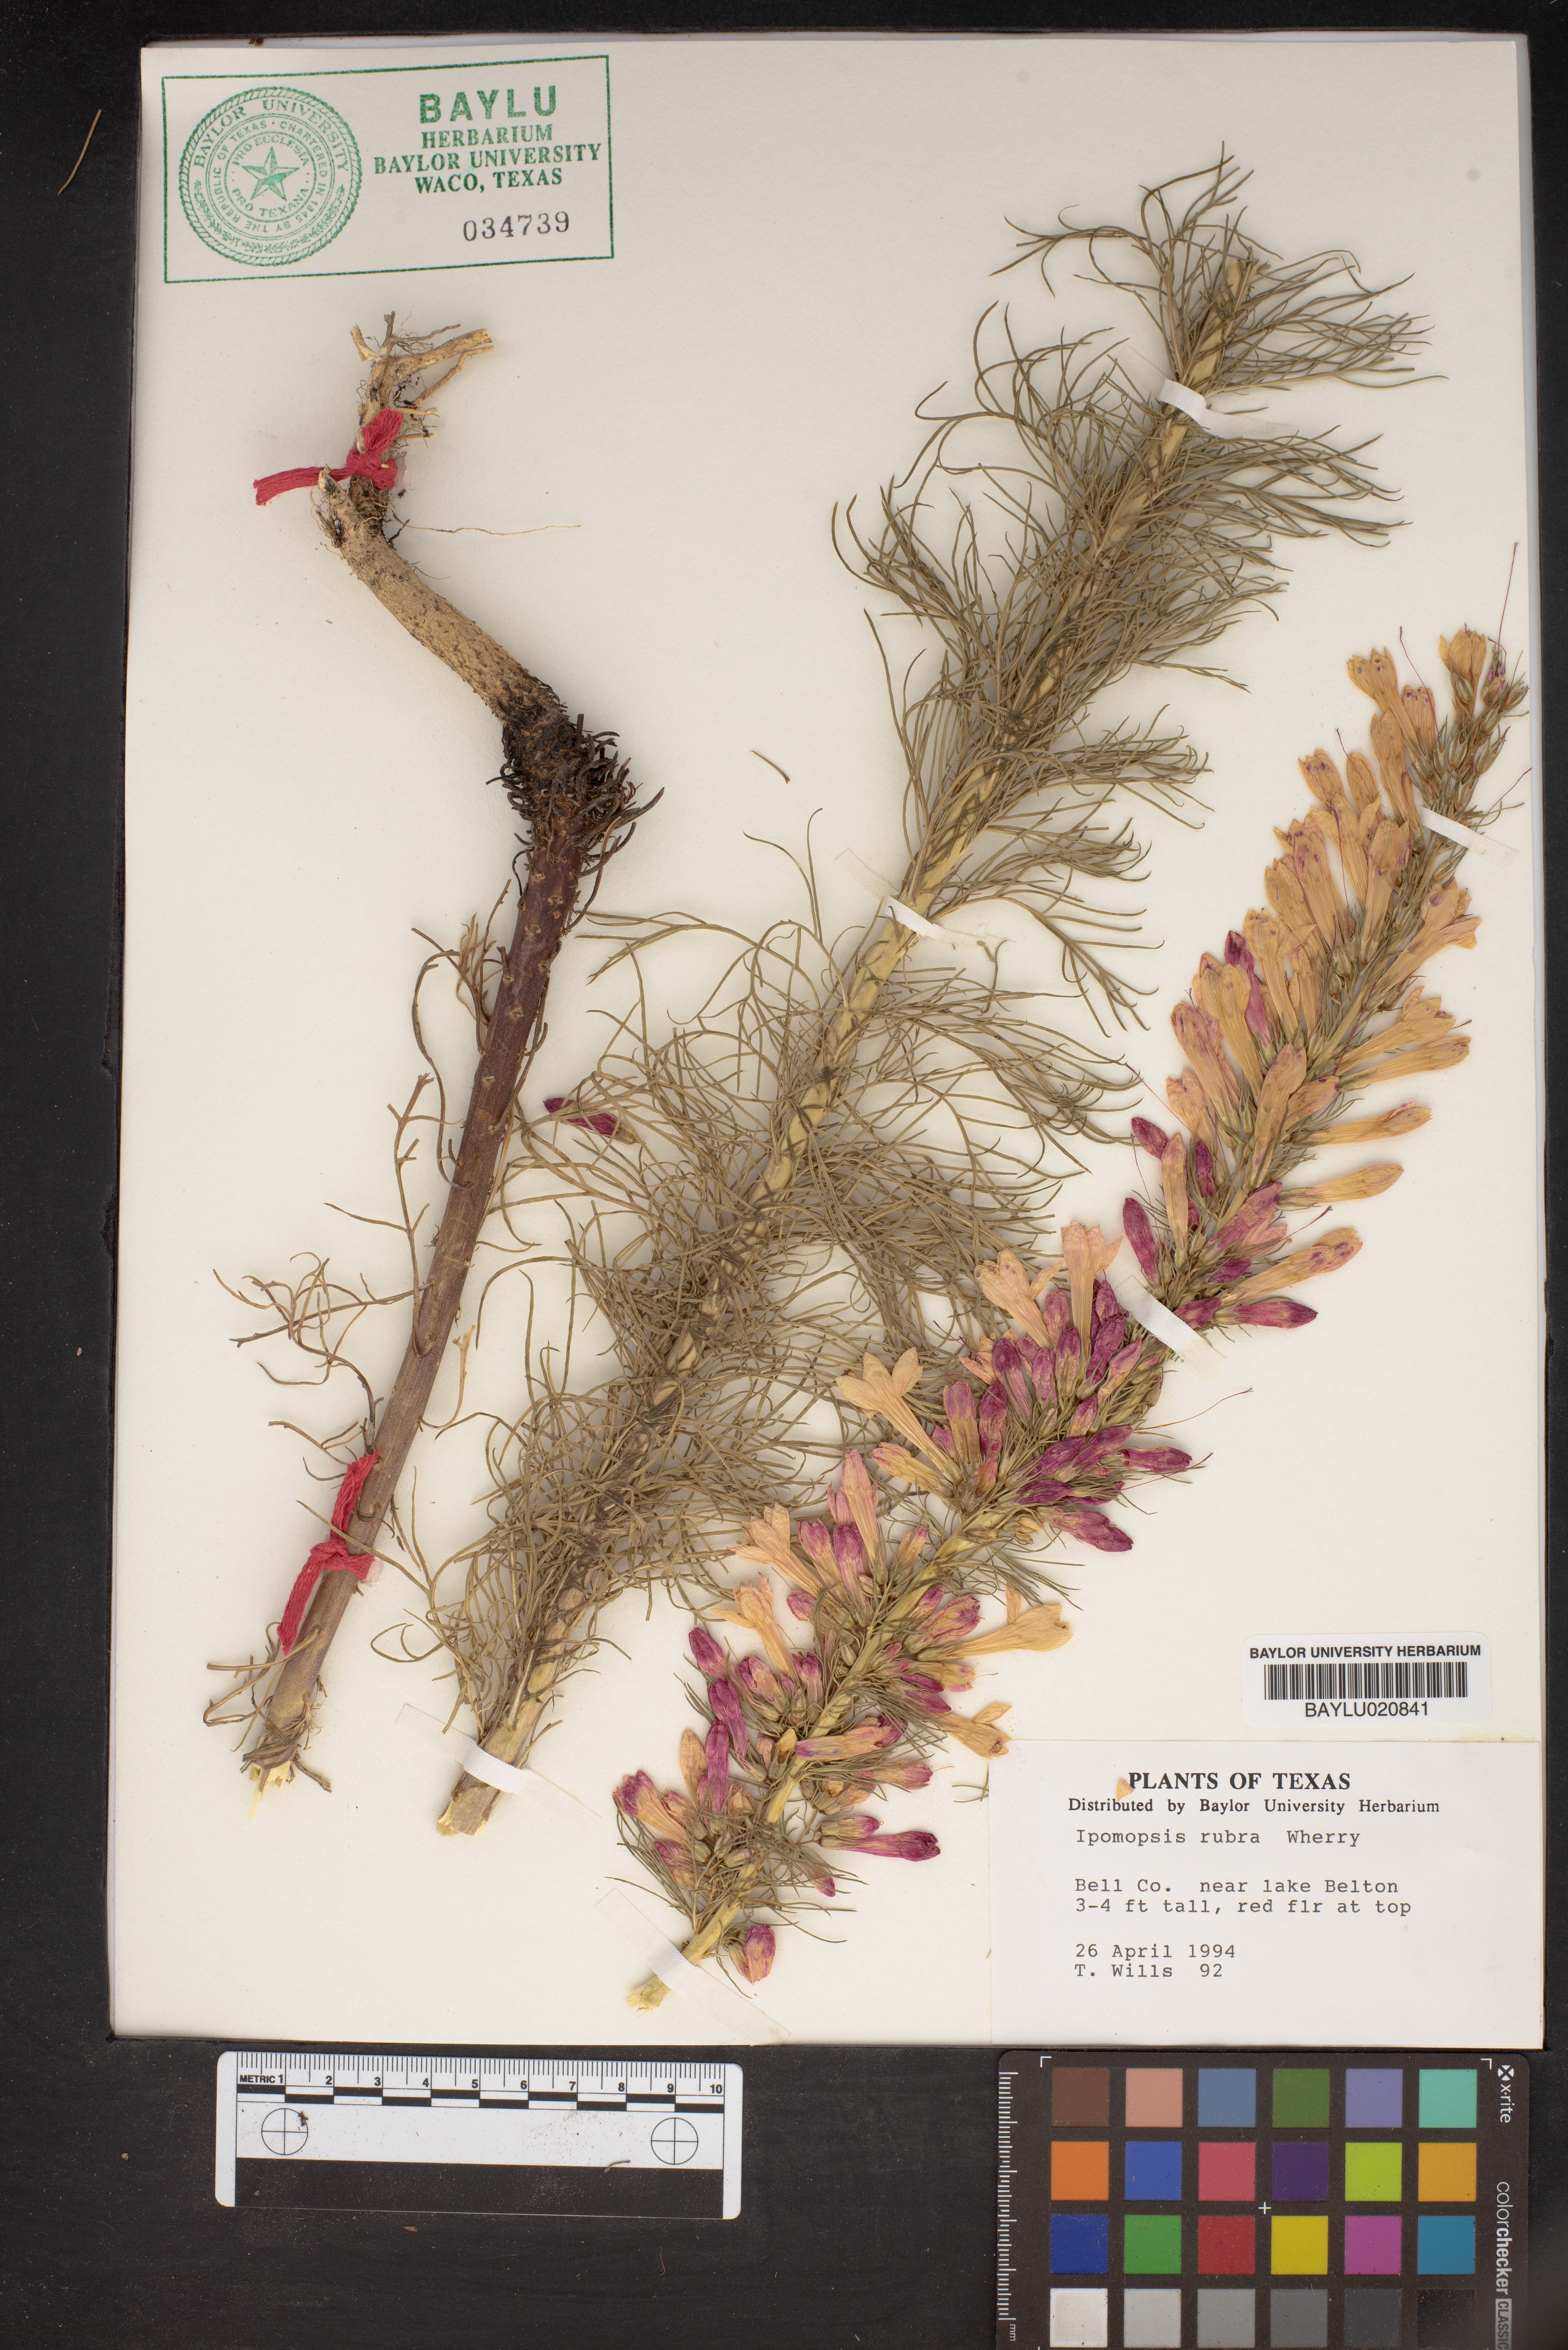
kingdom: Plantae
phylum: Tracheophyta
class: Magnoliopsida
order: Ericales
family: Polemoniaceae
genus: Ipomopsis
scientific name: Ipomopsis rubra
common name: Skyrocket
